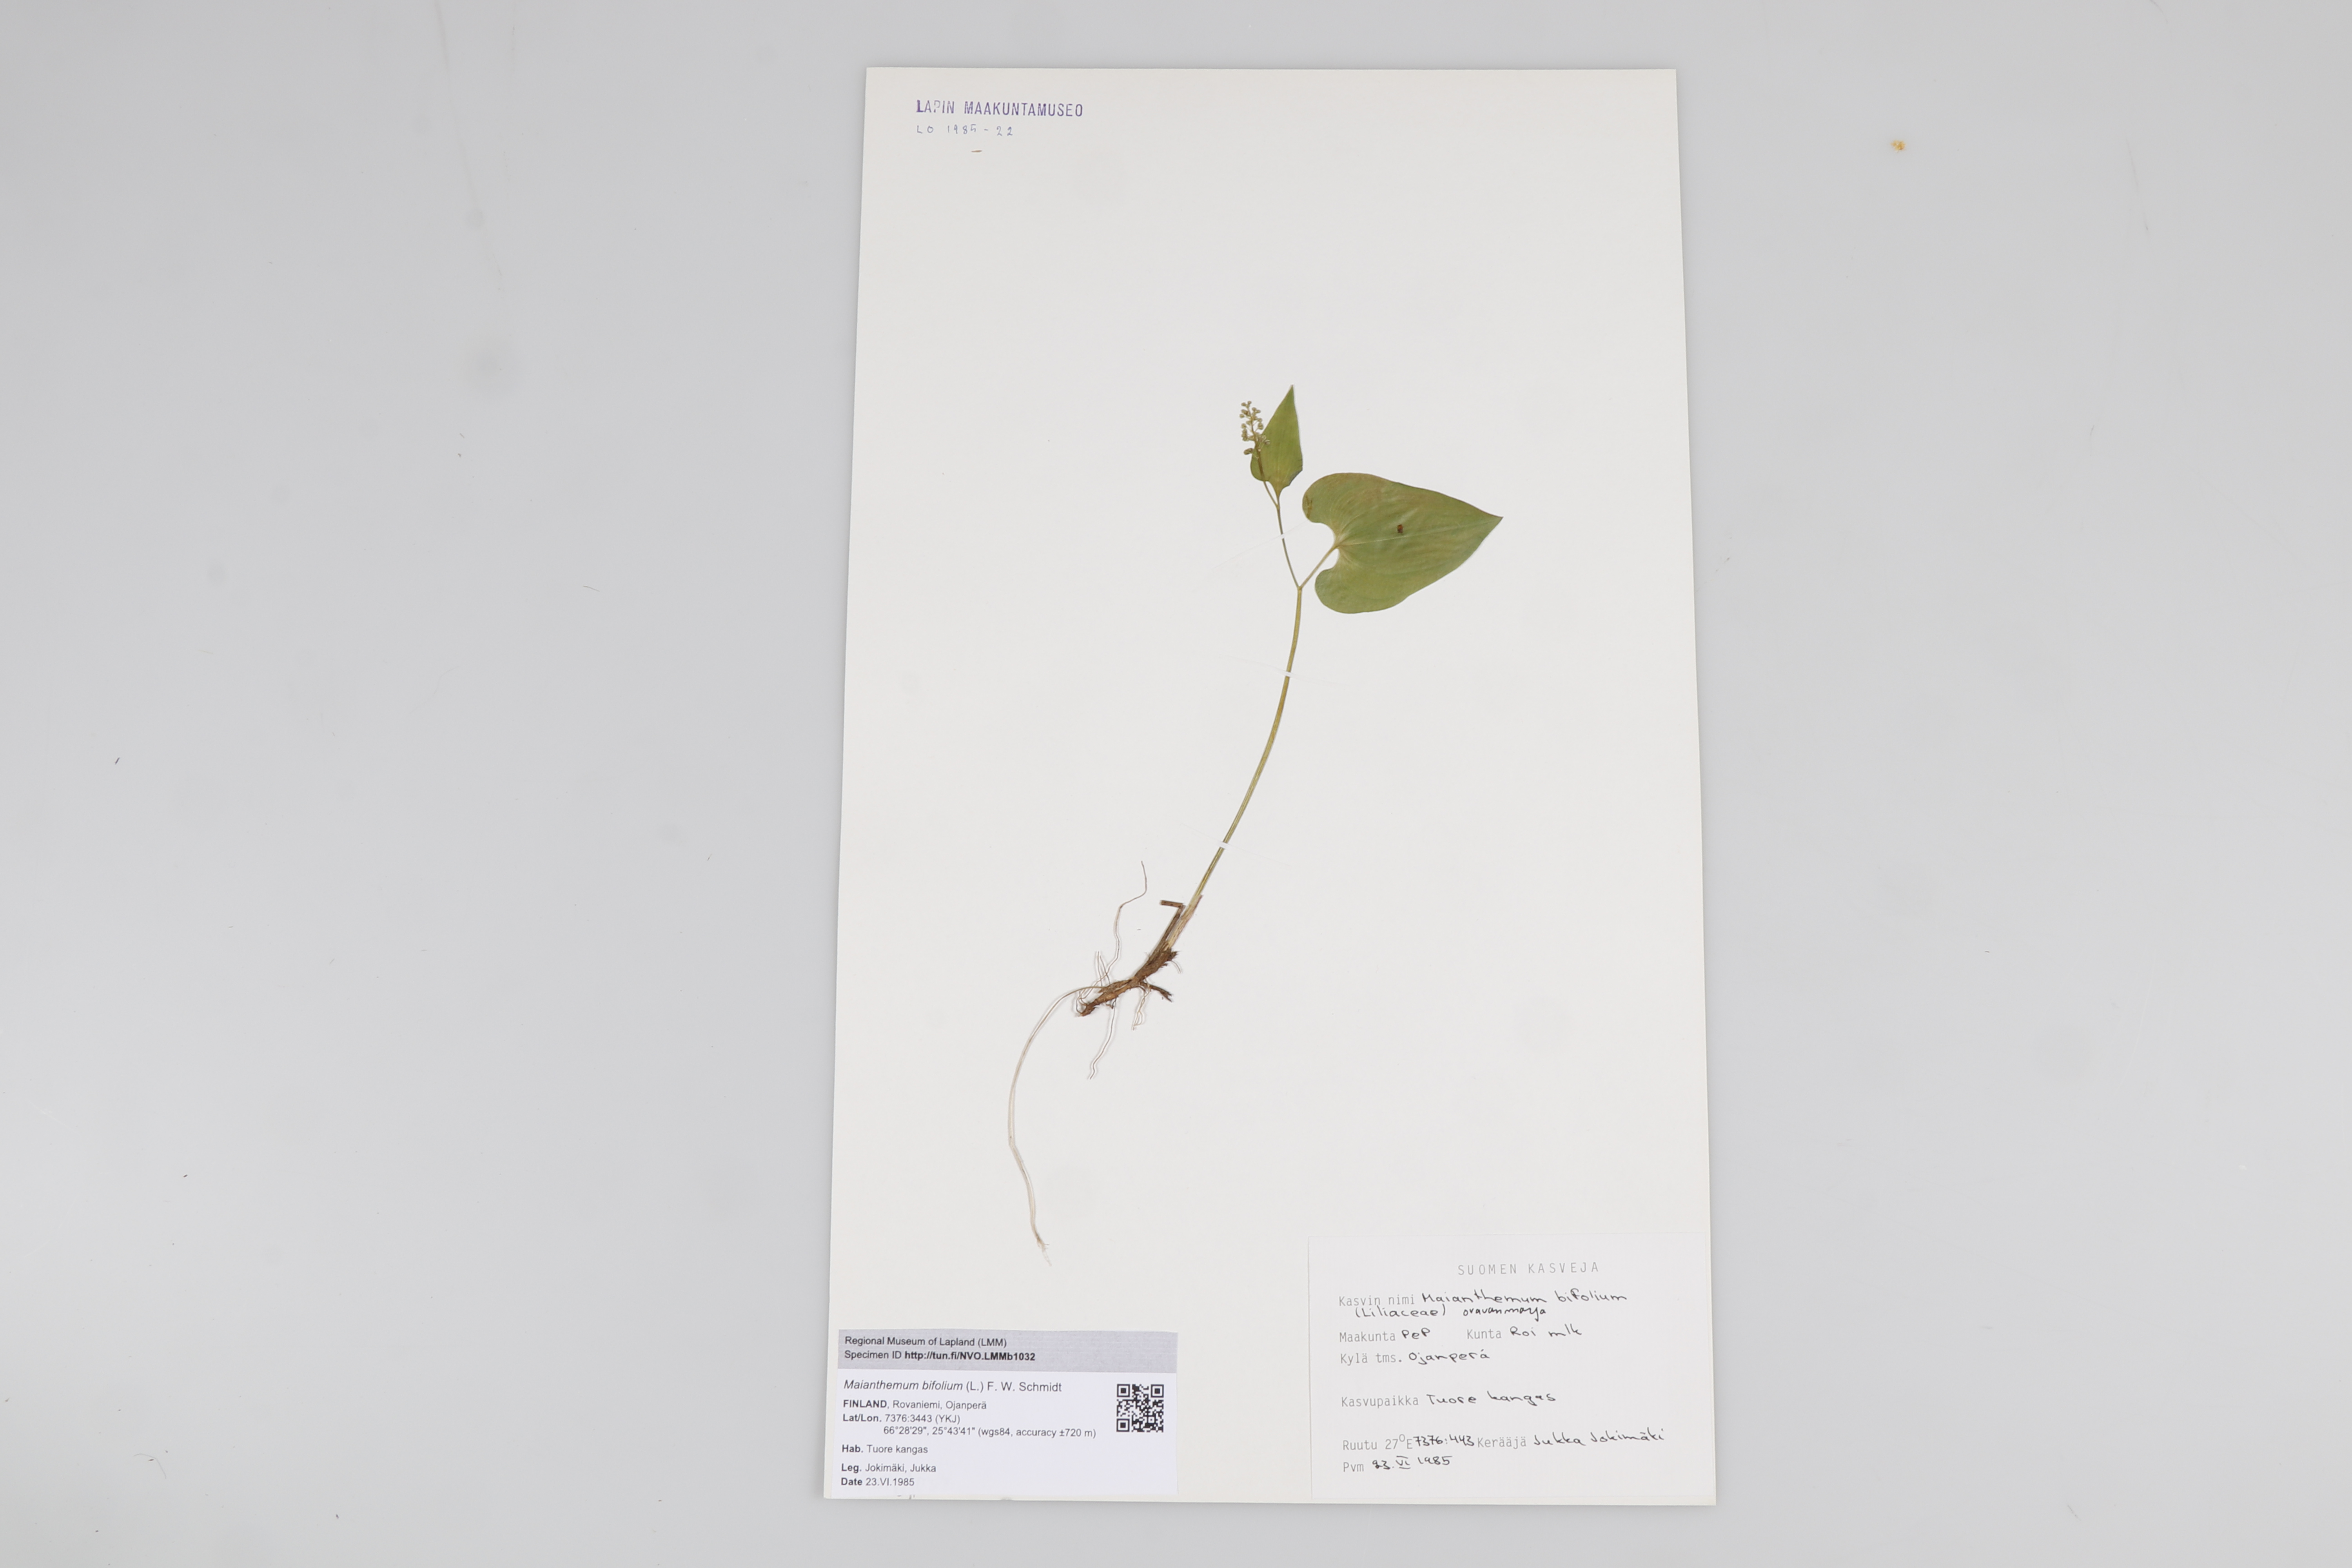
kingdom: Plantae
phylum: Tracheophyta
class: Liliopsida
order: Asparagales
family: Asparagaceae
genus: Maianthemum
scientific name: Maianthemum bifolium
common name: May lily
